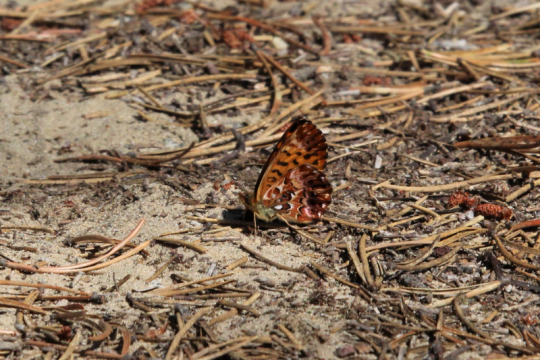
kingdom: Animalia
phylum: Arthropoda
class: Insecta
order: Lepidoptera
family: Nymphalidae
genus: Boloria
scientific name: Boloria chariclea
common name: Arctic Fritillary
